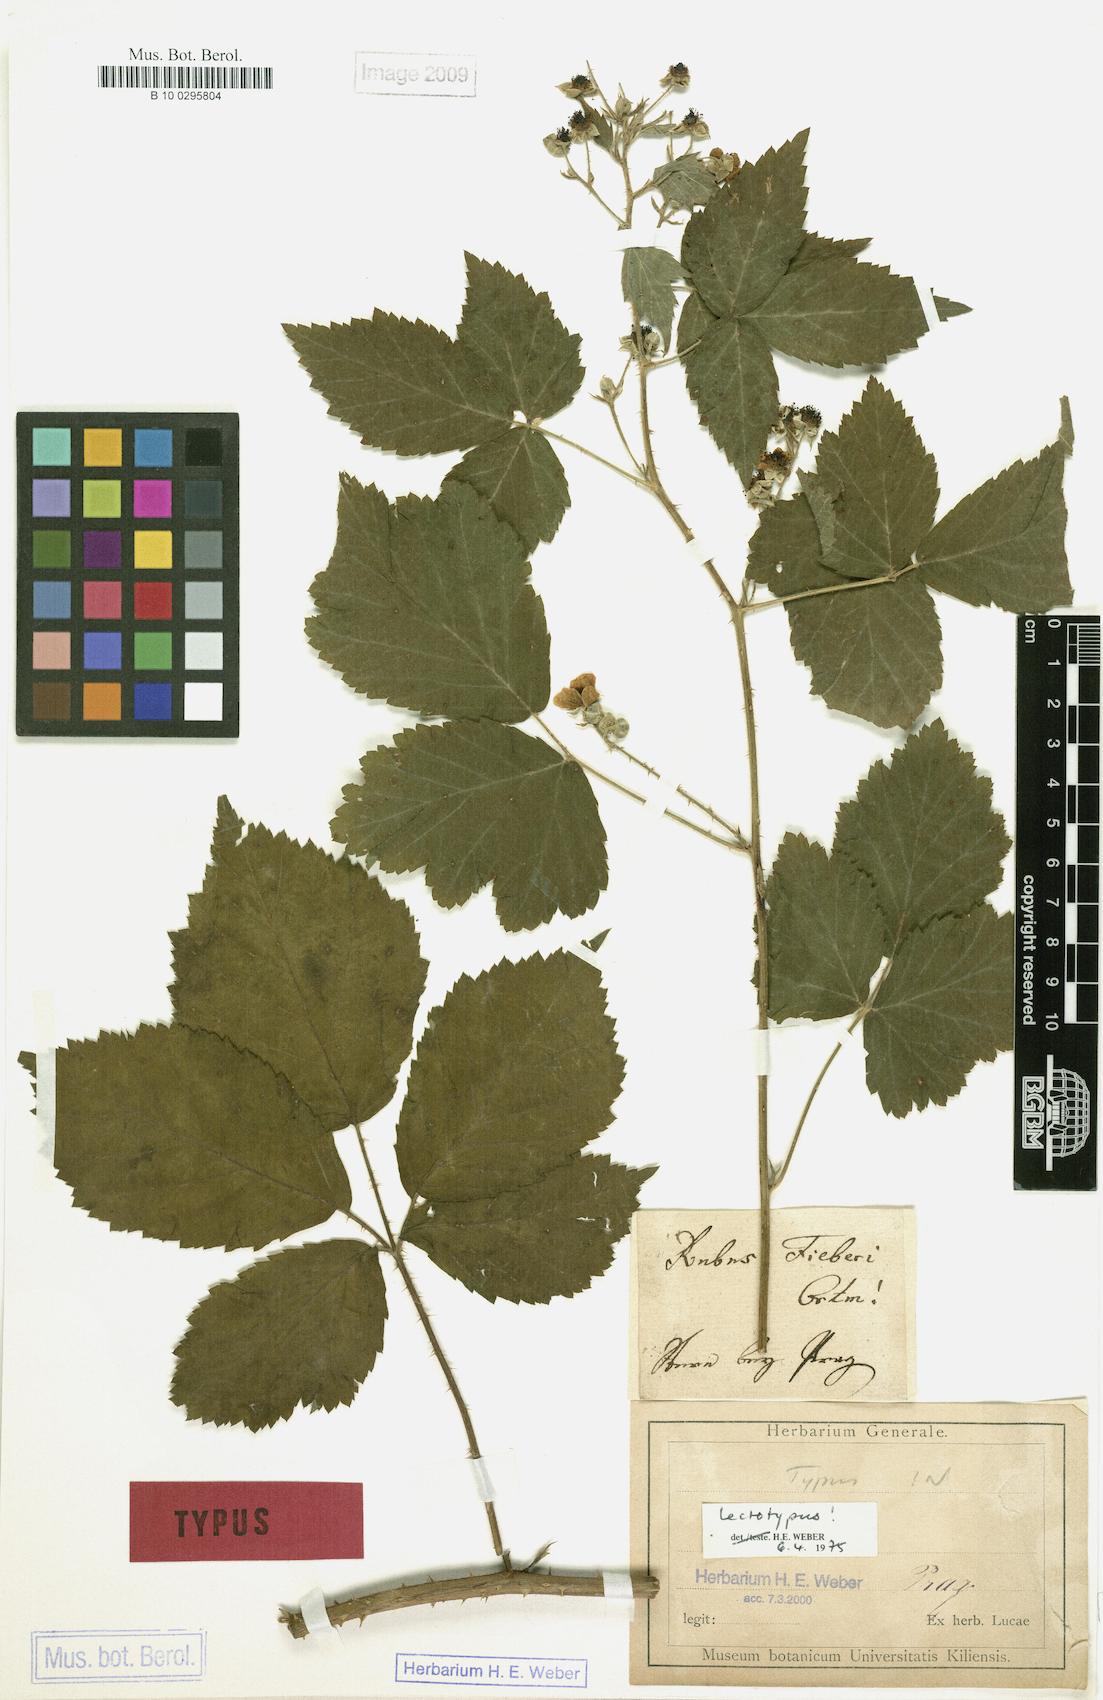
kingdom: Plantae
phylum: Tracheophyta
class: Magnoliopsida
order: Rosales
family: Rosaceae
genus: Rubus
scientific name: Rubus fieberi
